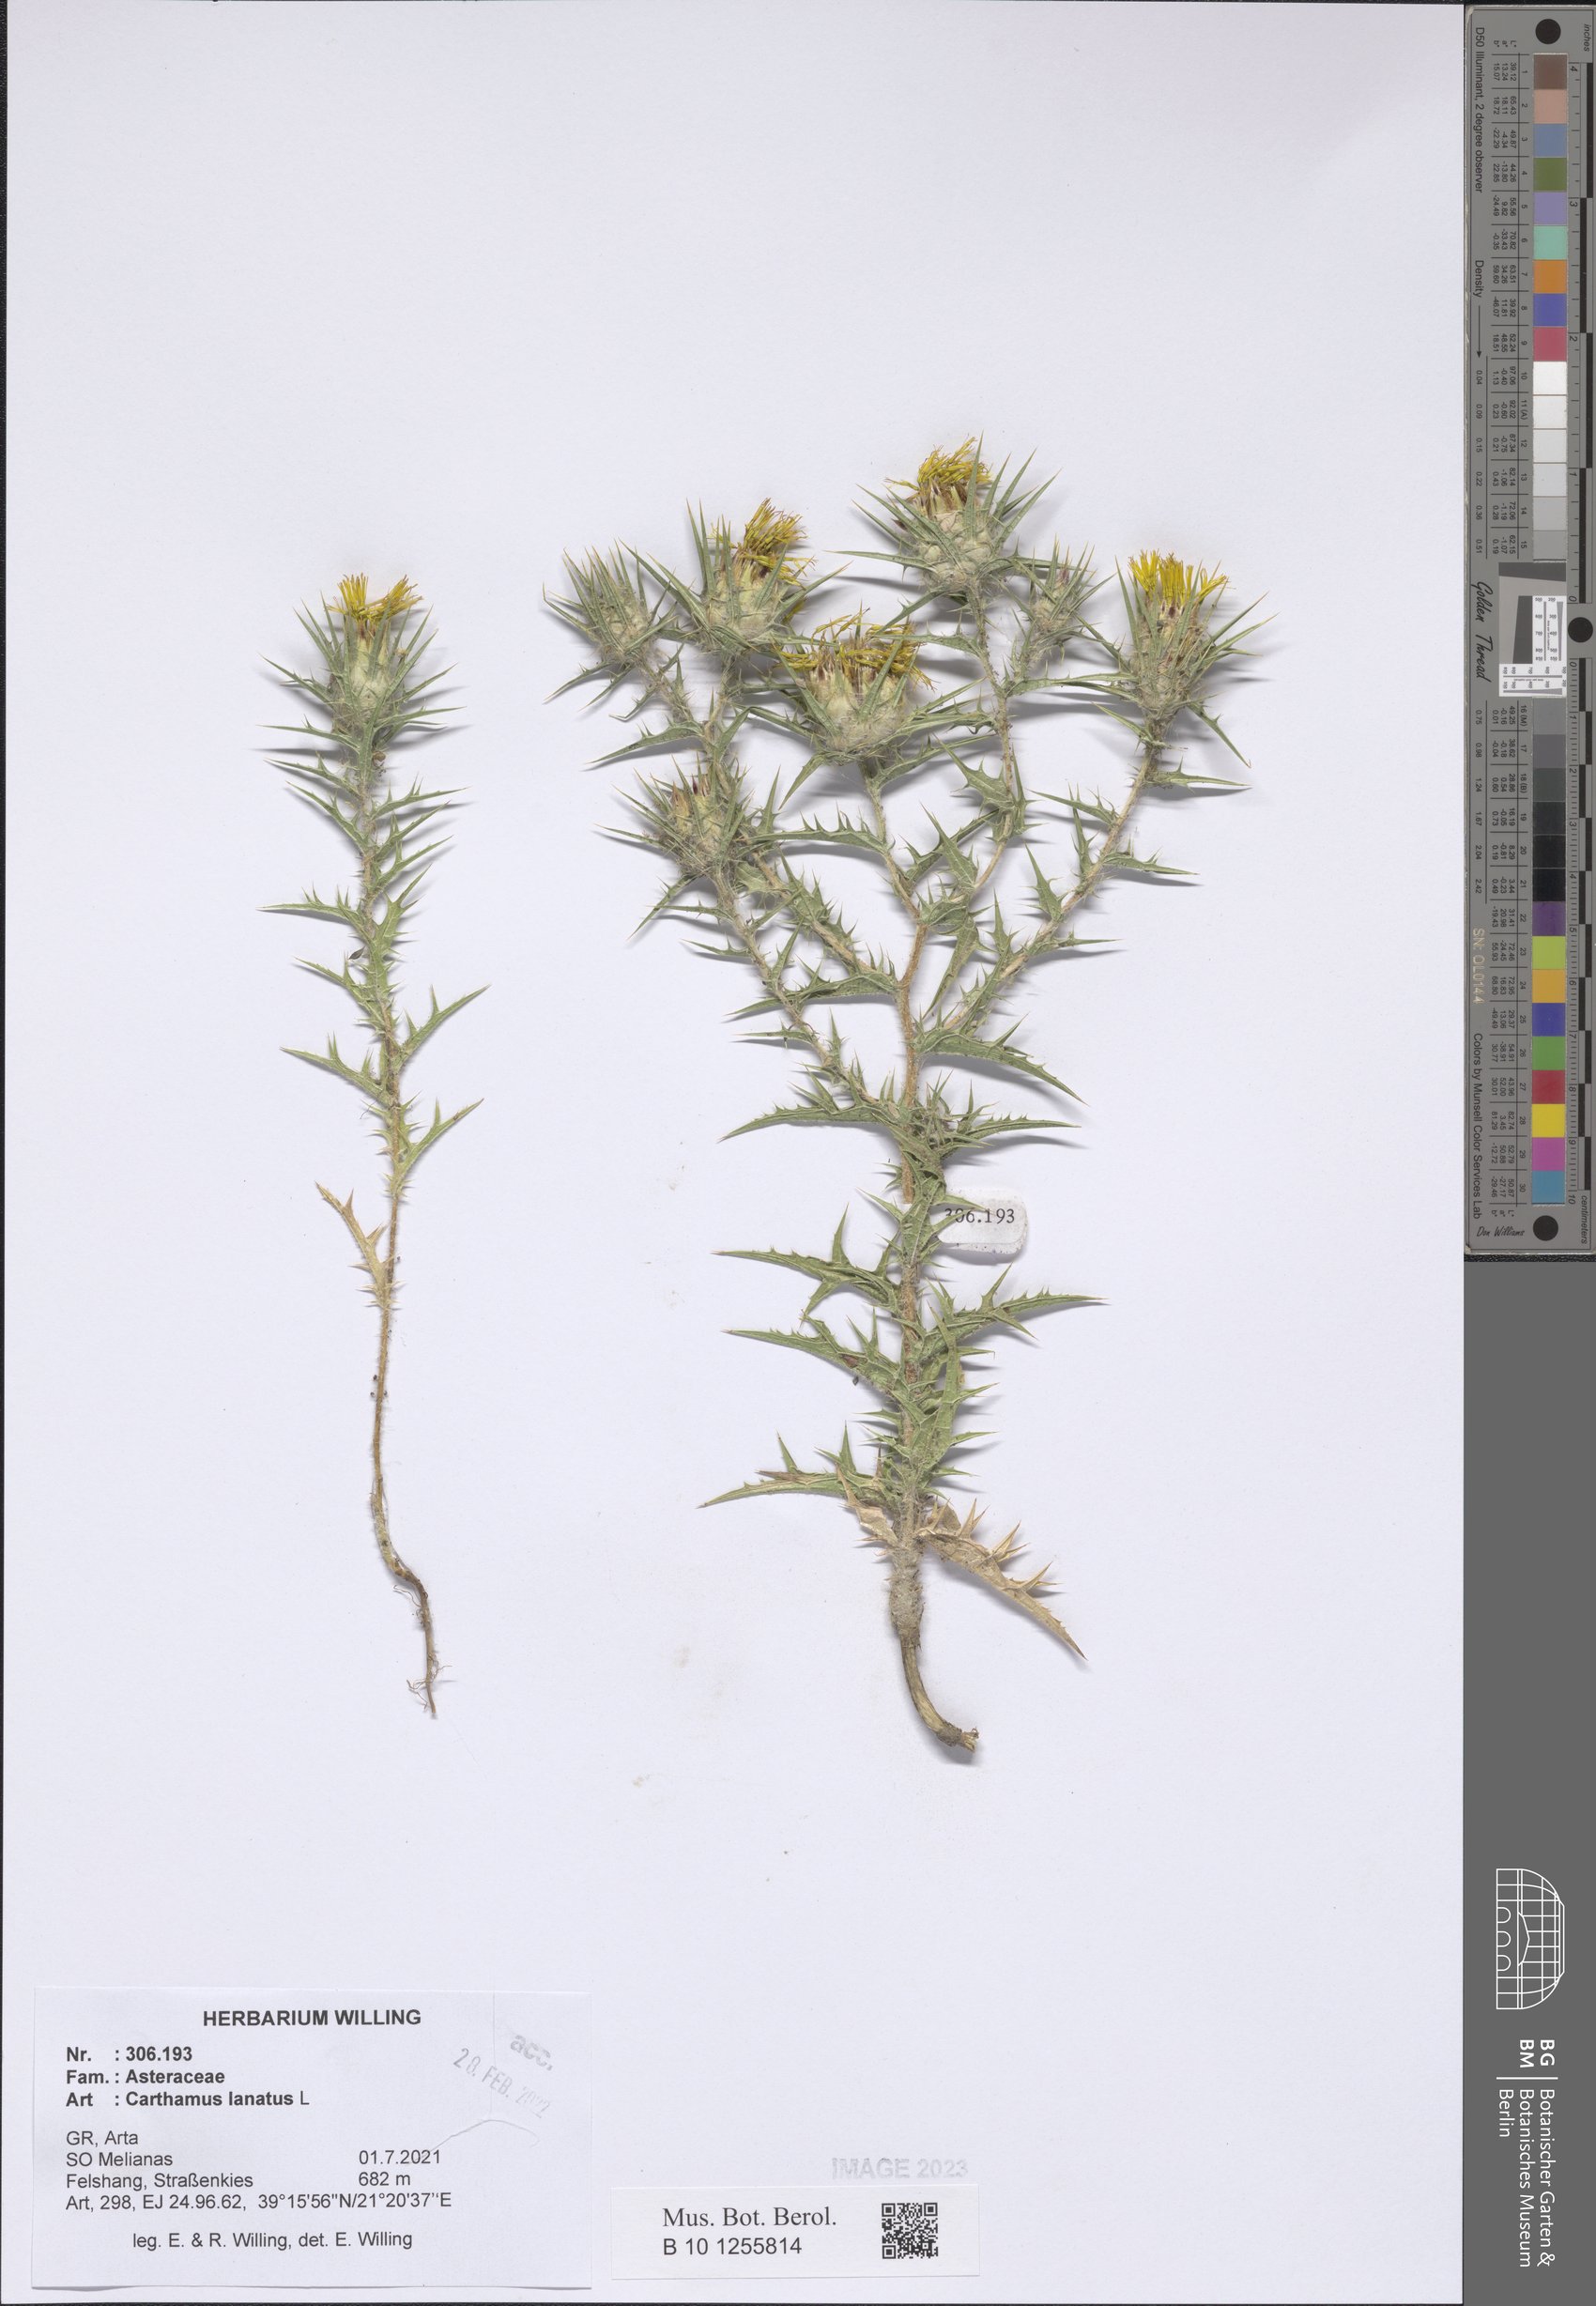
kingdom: Plantae
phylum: Tracheophyta
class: Magnoliopsida
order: Asterales
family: Asteraceae
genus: Carthamus
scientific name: Carthamus lanatus
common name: Downy safflower
